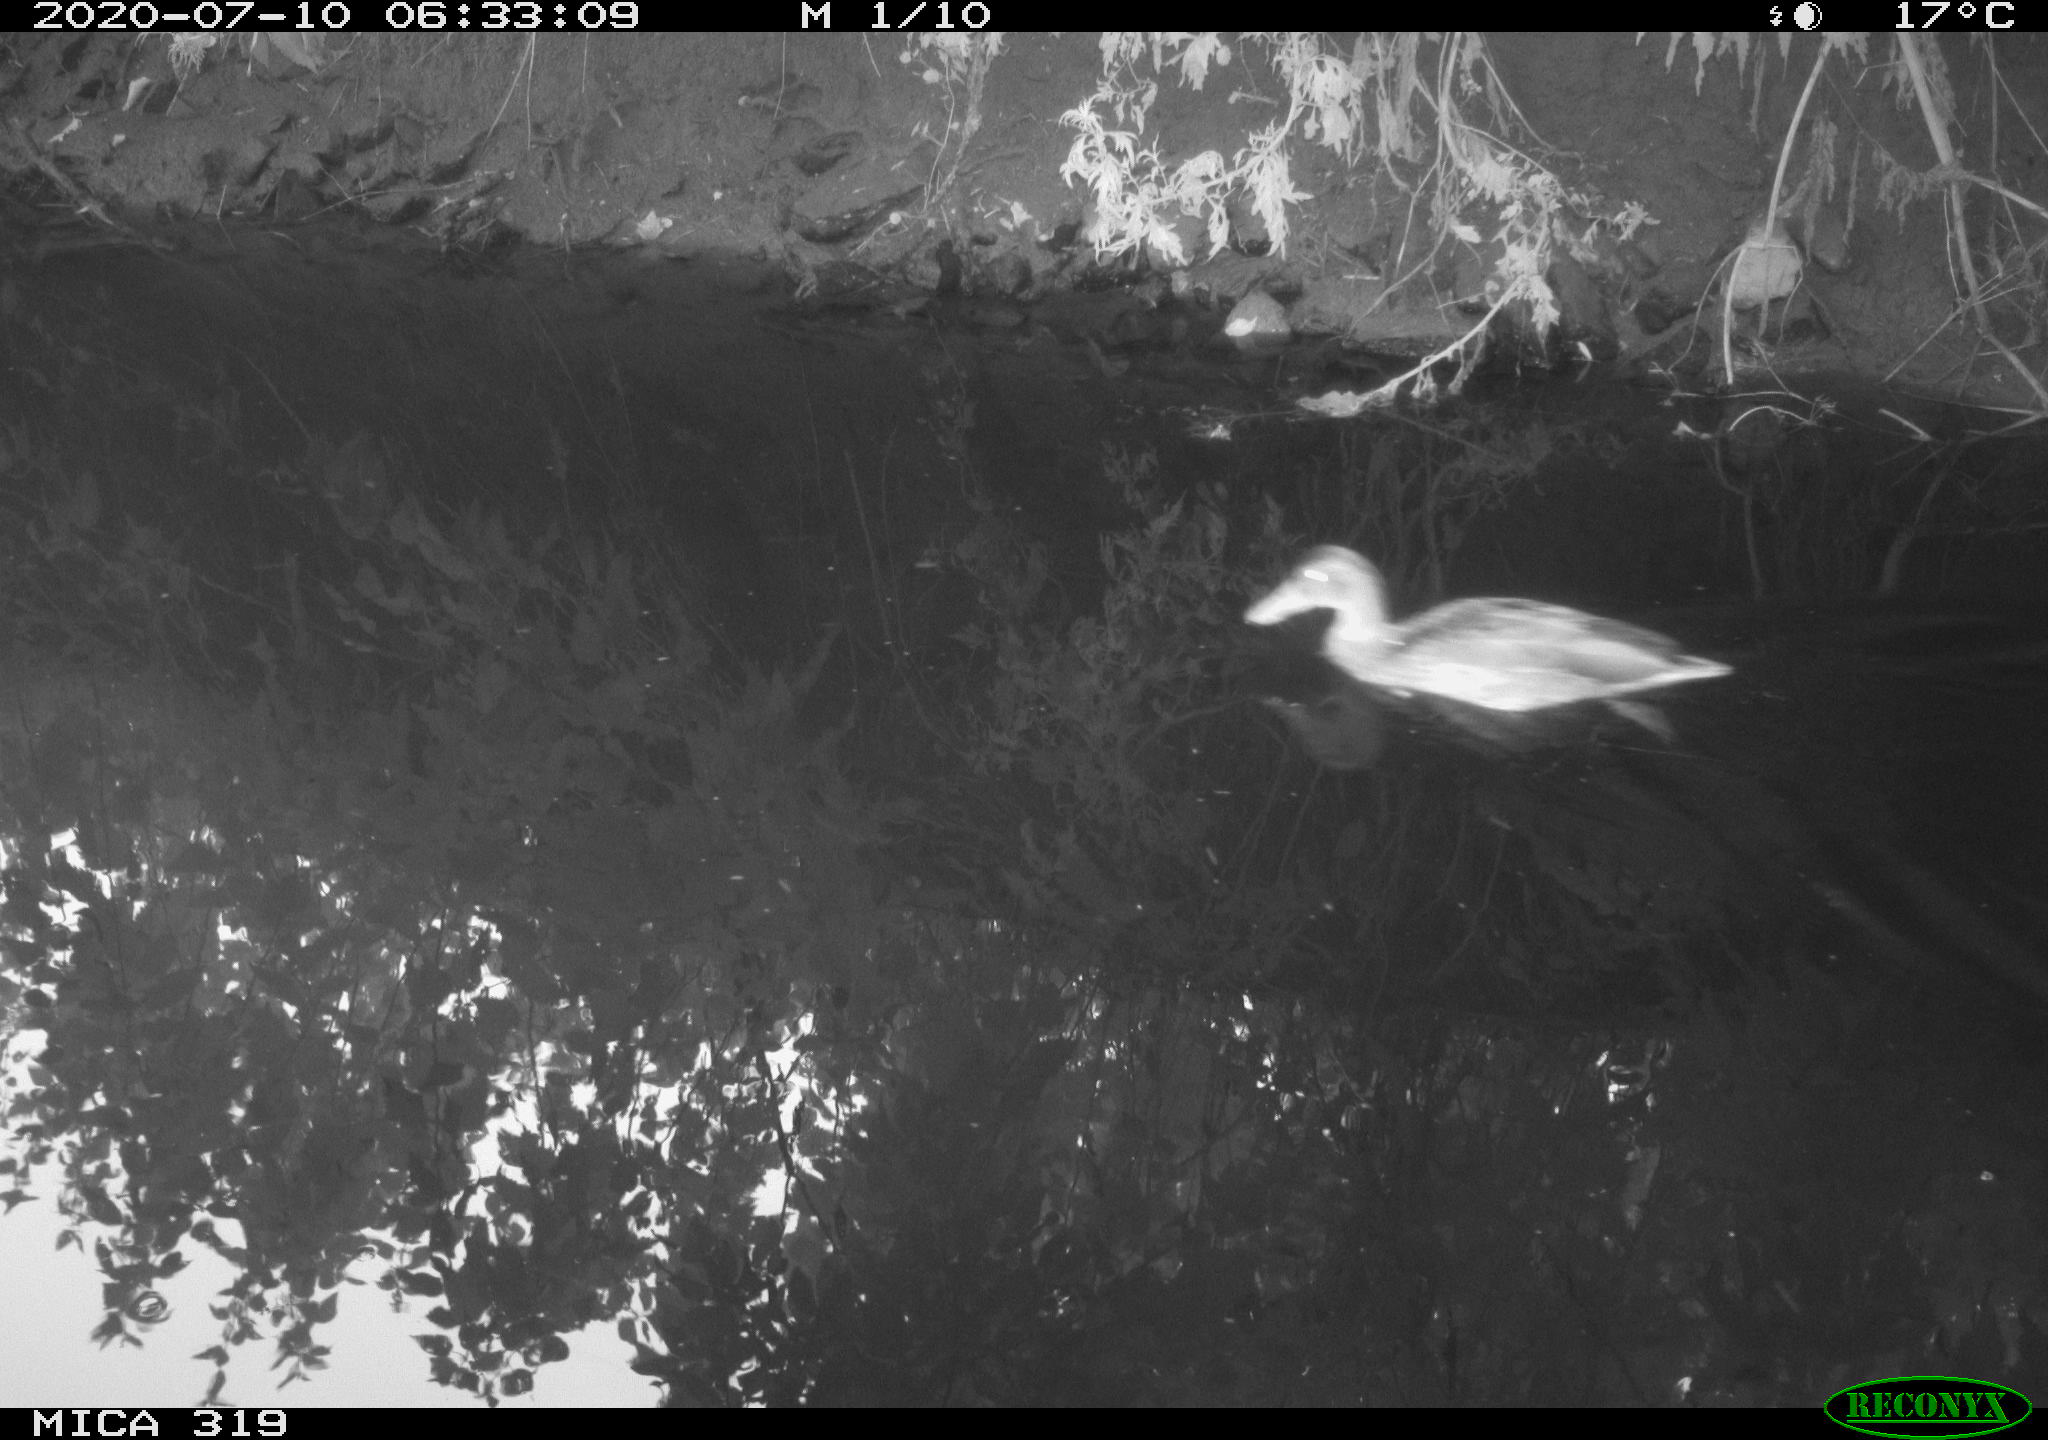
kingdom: Animalia
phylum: Chordata
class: Aves
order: Anseriformes
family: Anatidae
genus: Anas
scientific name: Anas platyrhynchos
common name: Mallard
